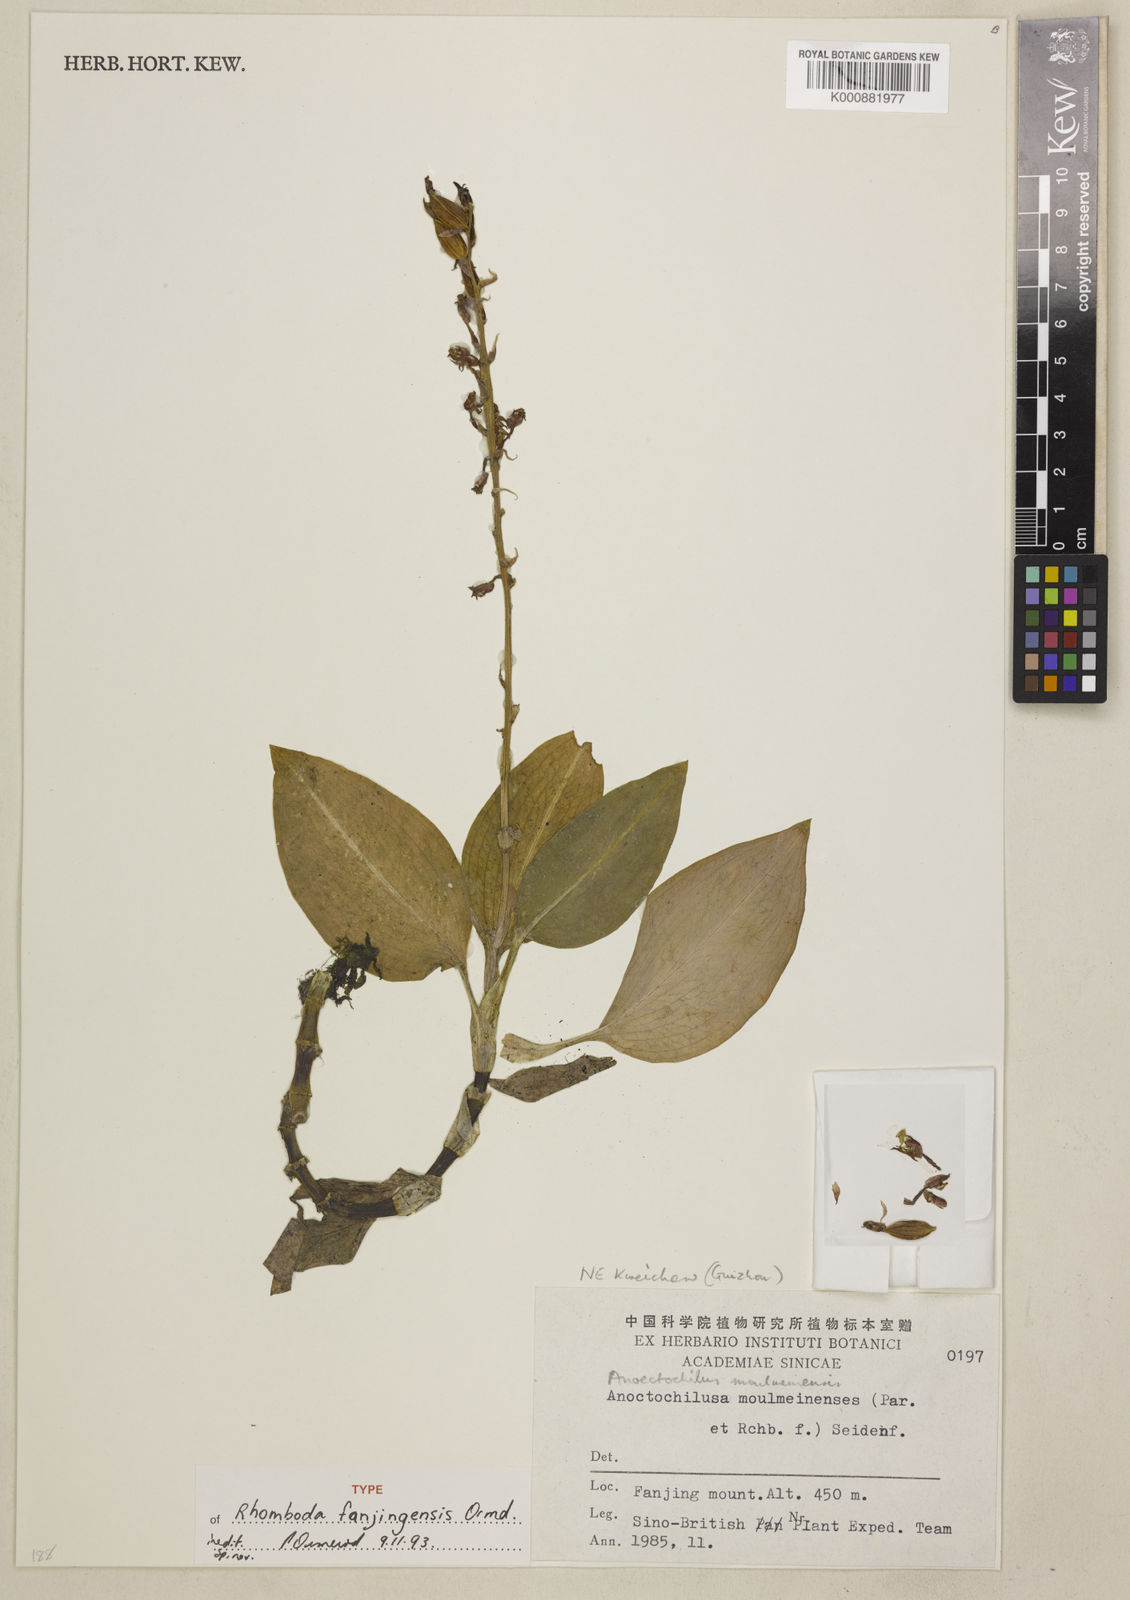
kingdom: Plantae
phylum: Tracheophyta
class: Liliopsida
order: Asparagales
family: Orchidaceae
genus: Rhomboda
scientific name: Rhomboda fanjingensis
